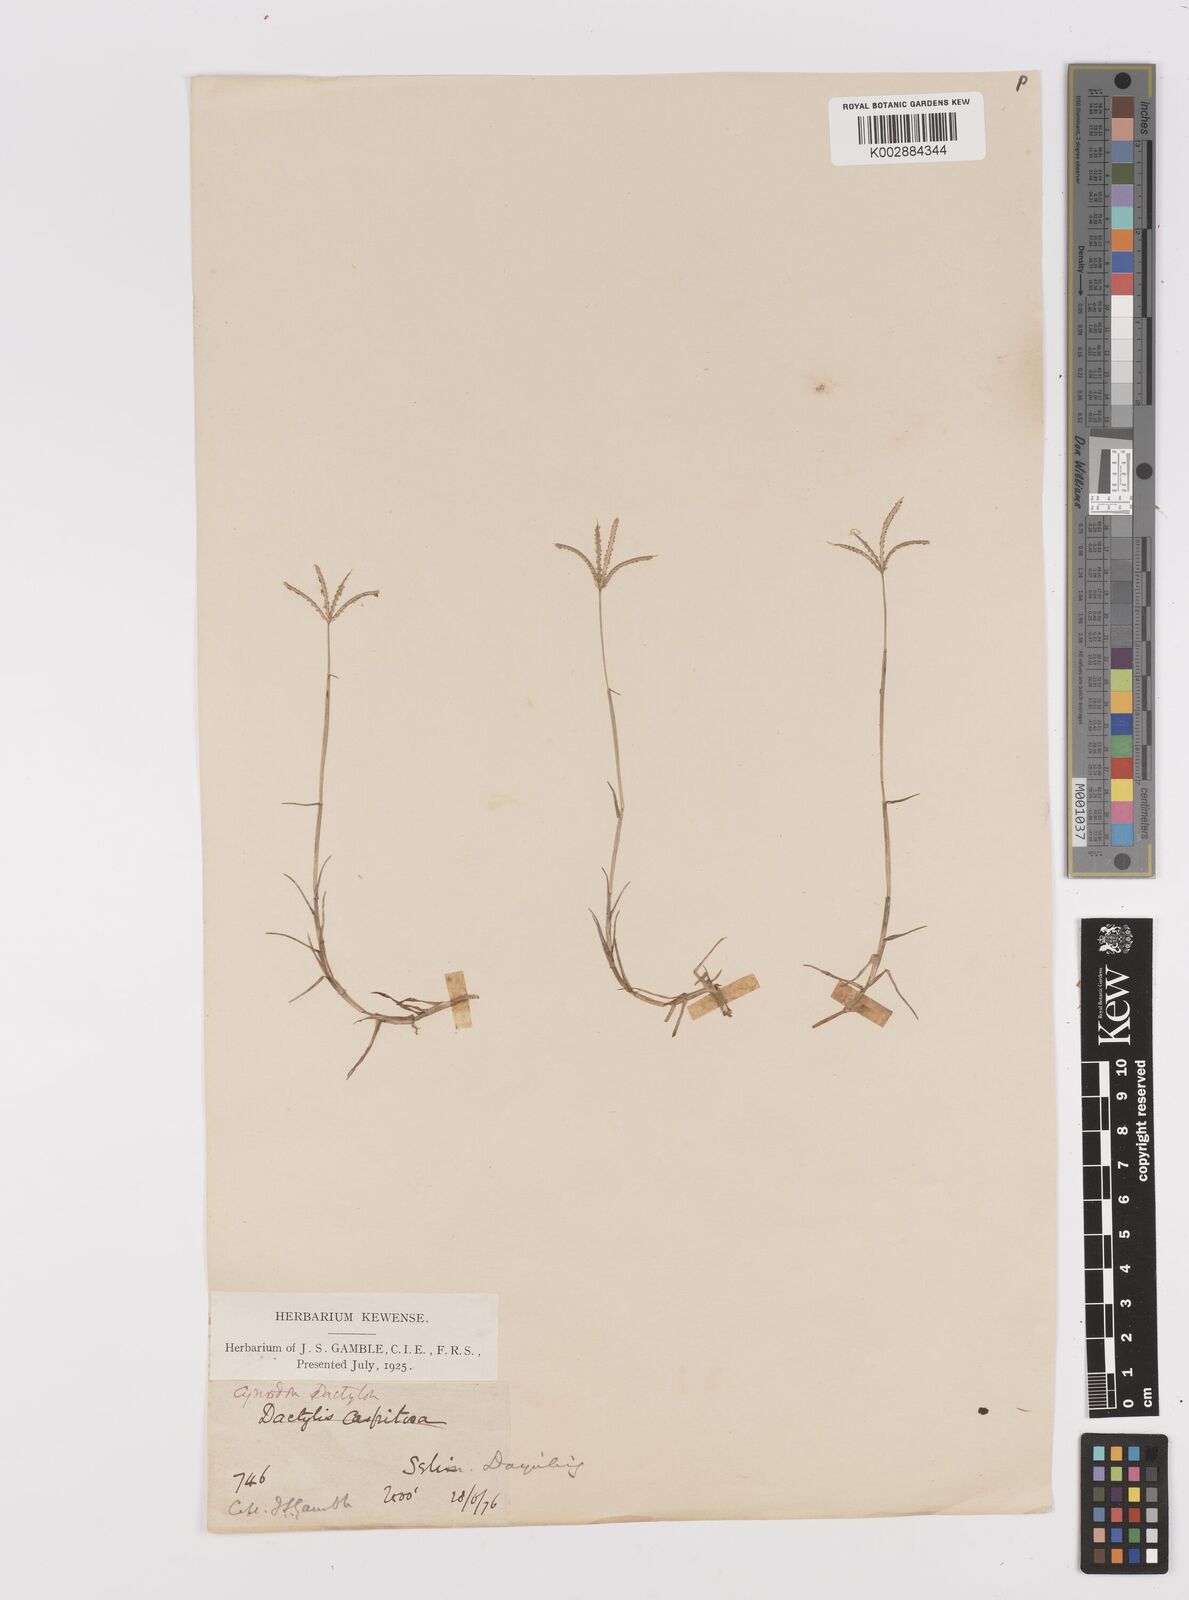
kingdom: Plantae
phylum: Tracheophyta
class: Liliopsida
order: Poales
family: Poaceae
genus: Cynodon
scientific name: Cynodon dactylon
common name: Bermuda grass
